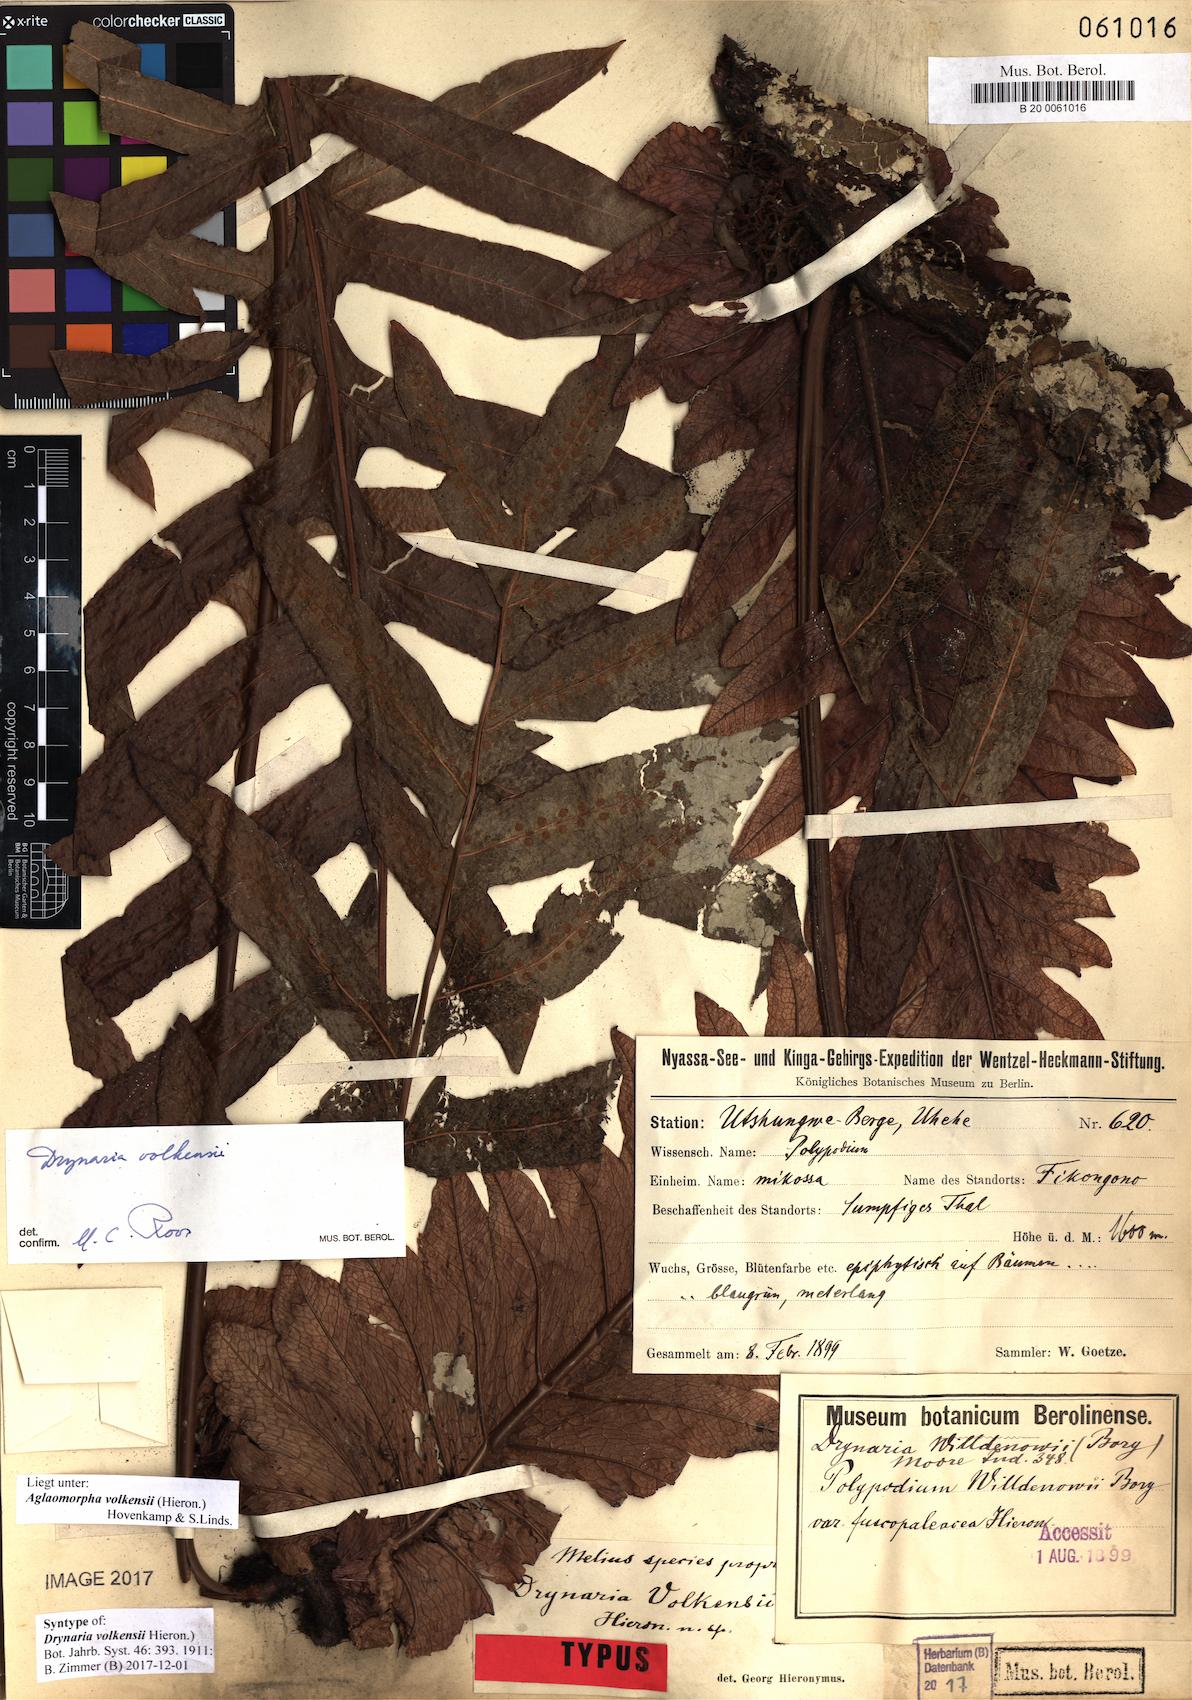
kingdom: Plantae
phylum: Tracheophyta
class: Polypodiopsida
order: Polypodiales
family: Polypodiaceae
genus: Drynaria
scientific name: Drynaria volkensii
